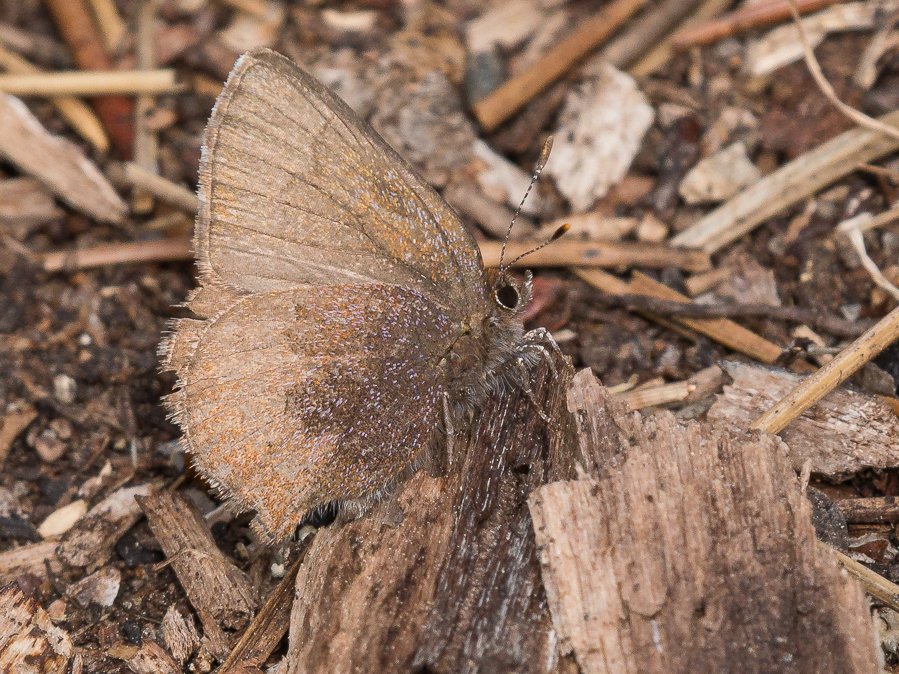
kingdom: Animalia
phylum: Arthropoda
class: Insecta
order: Lepidoptera
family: Lycaenidae
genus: Incisalia
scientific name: Incisalia irioides
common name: Brown Elfin
